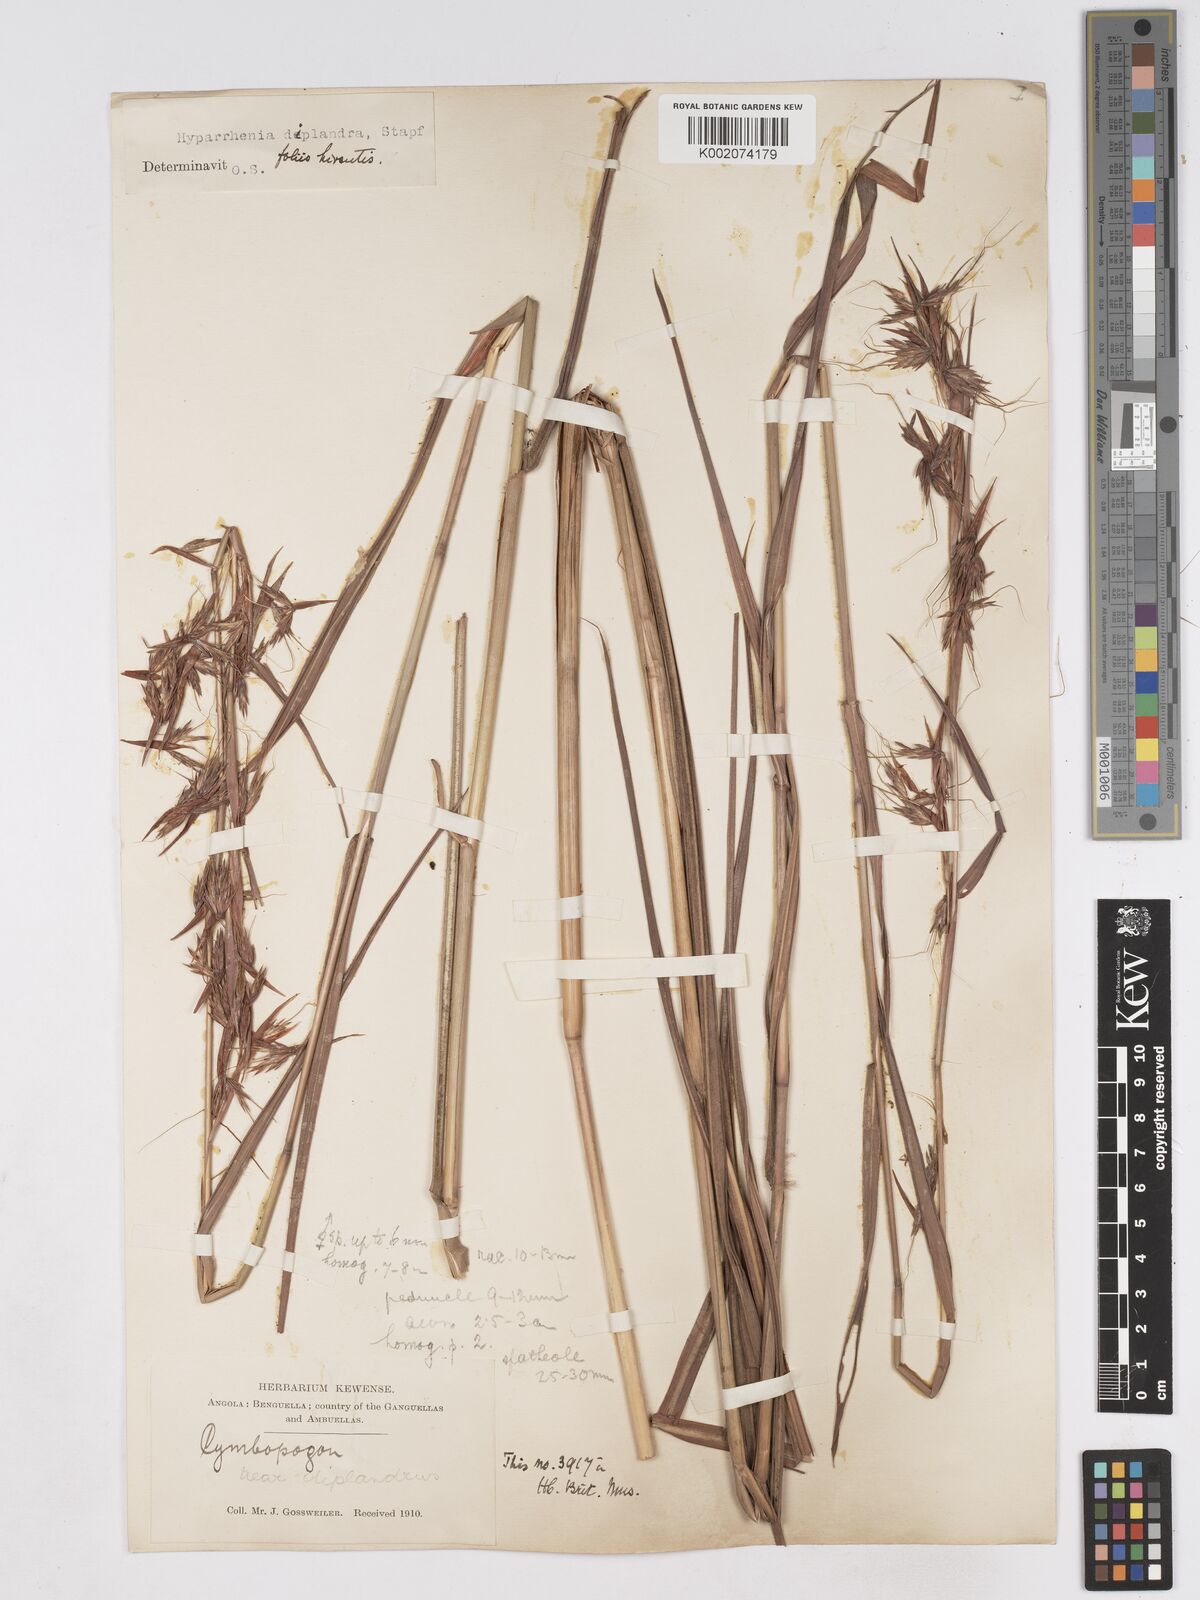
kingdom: Plantae
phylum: Tracheophyta
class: Liliopsida
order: Poales
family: Poaceae
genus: Hyparrhenia
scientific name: Hyparrhenia diplandra
